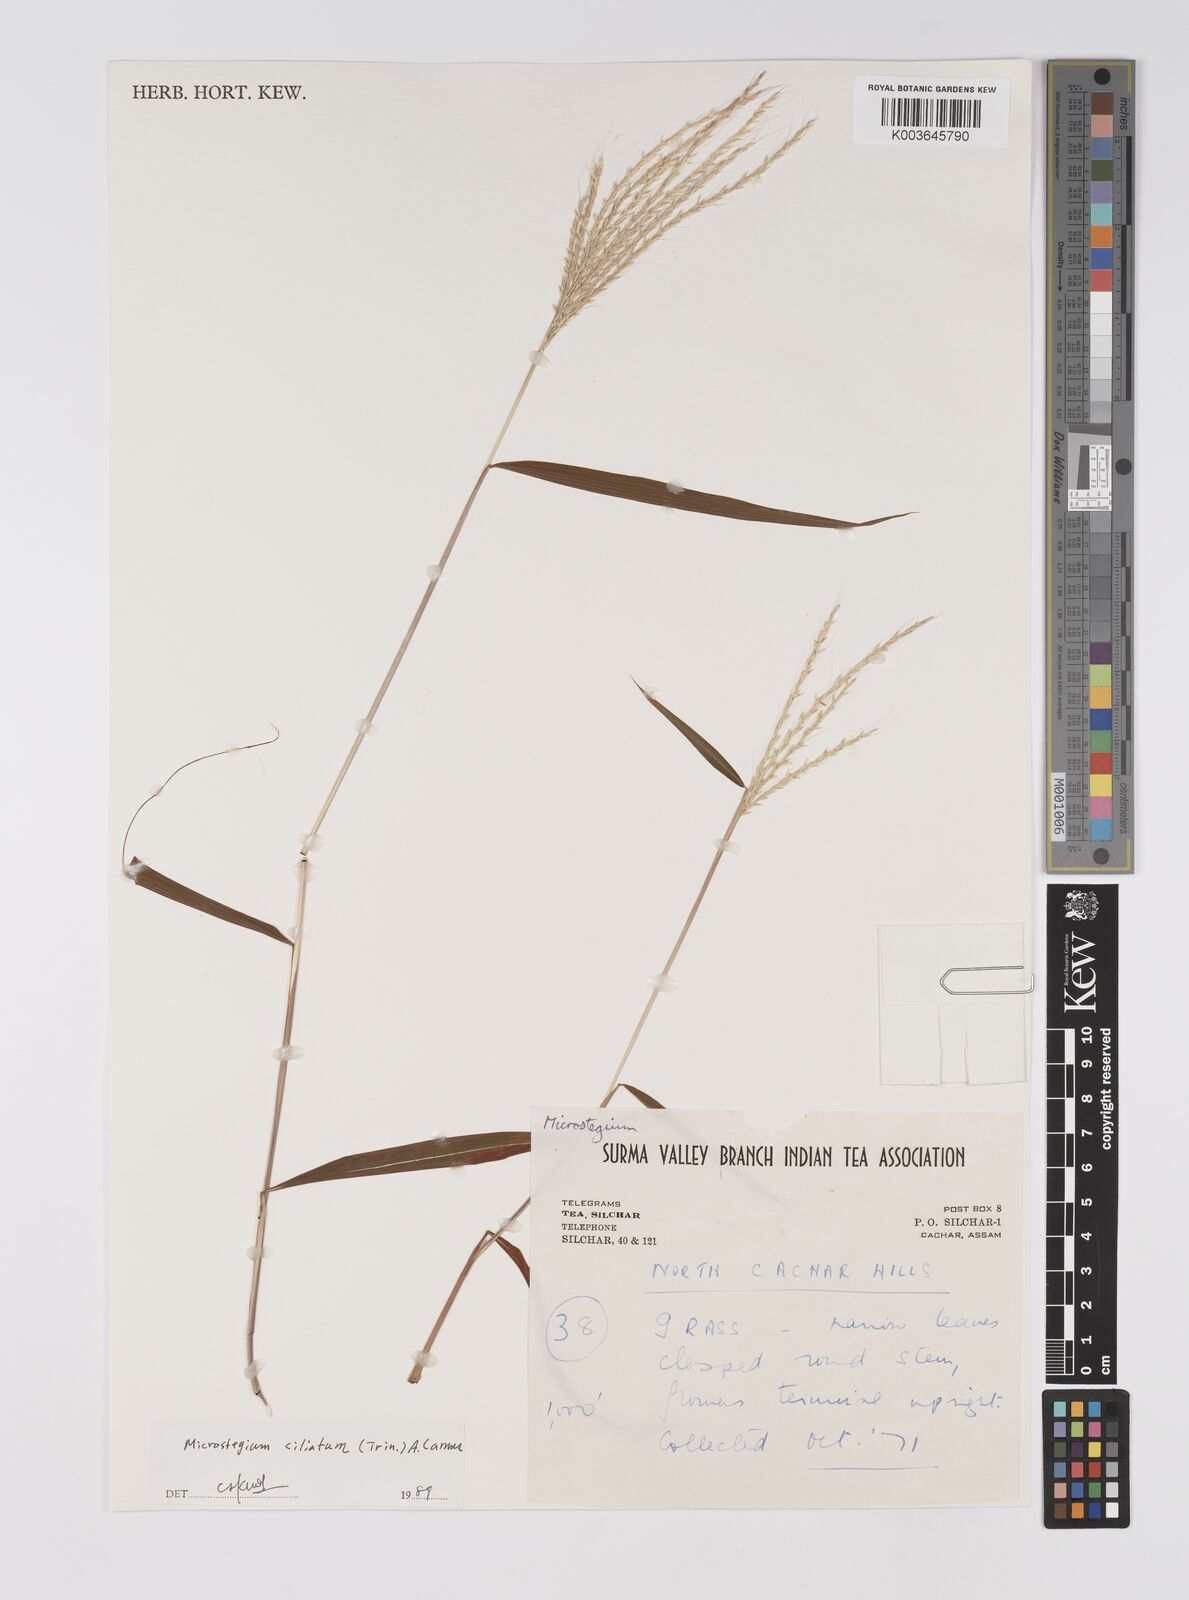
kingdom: Plantae
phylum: Tracheophyta
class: Liliopsida
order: Poales
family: Poaceae
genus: Microstegium
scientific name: Microstegium fasciculatum
